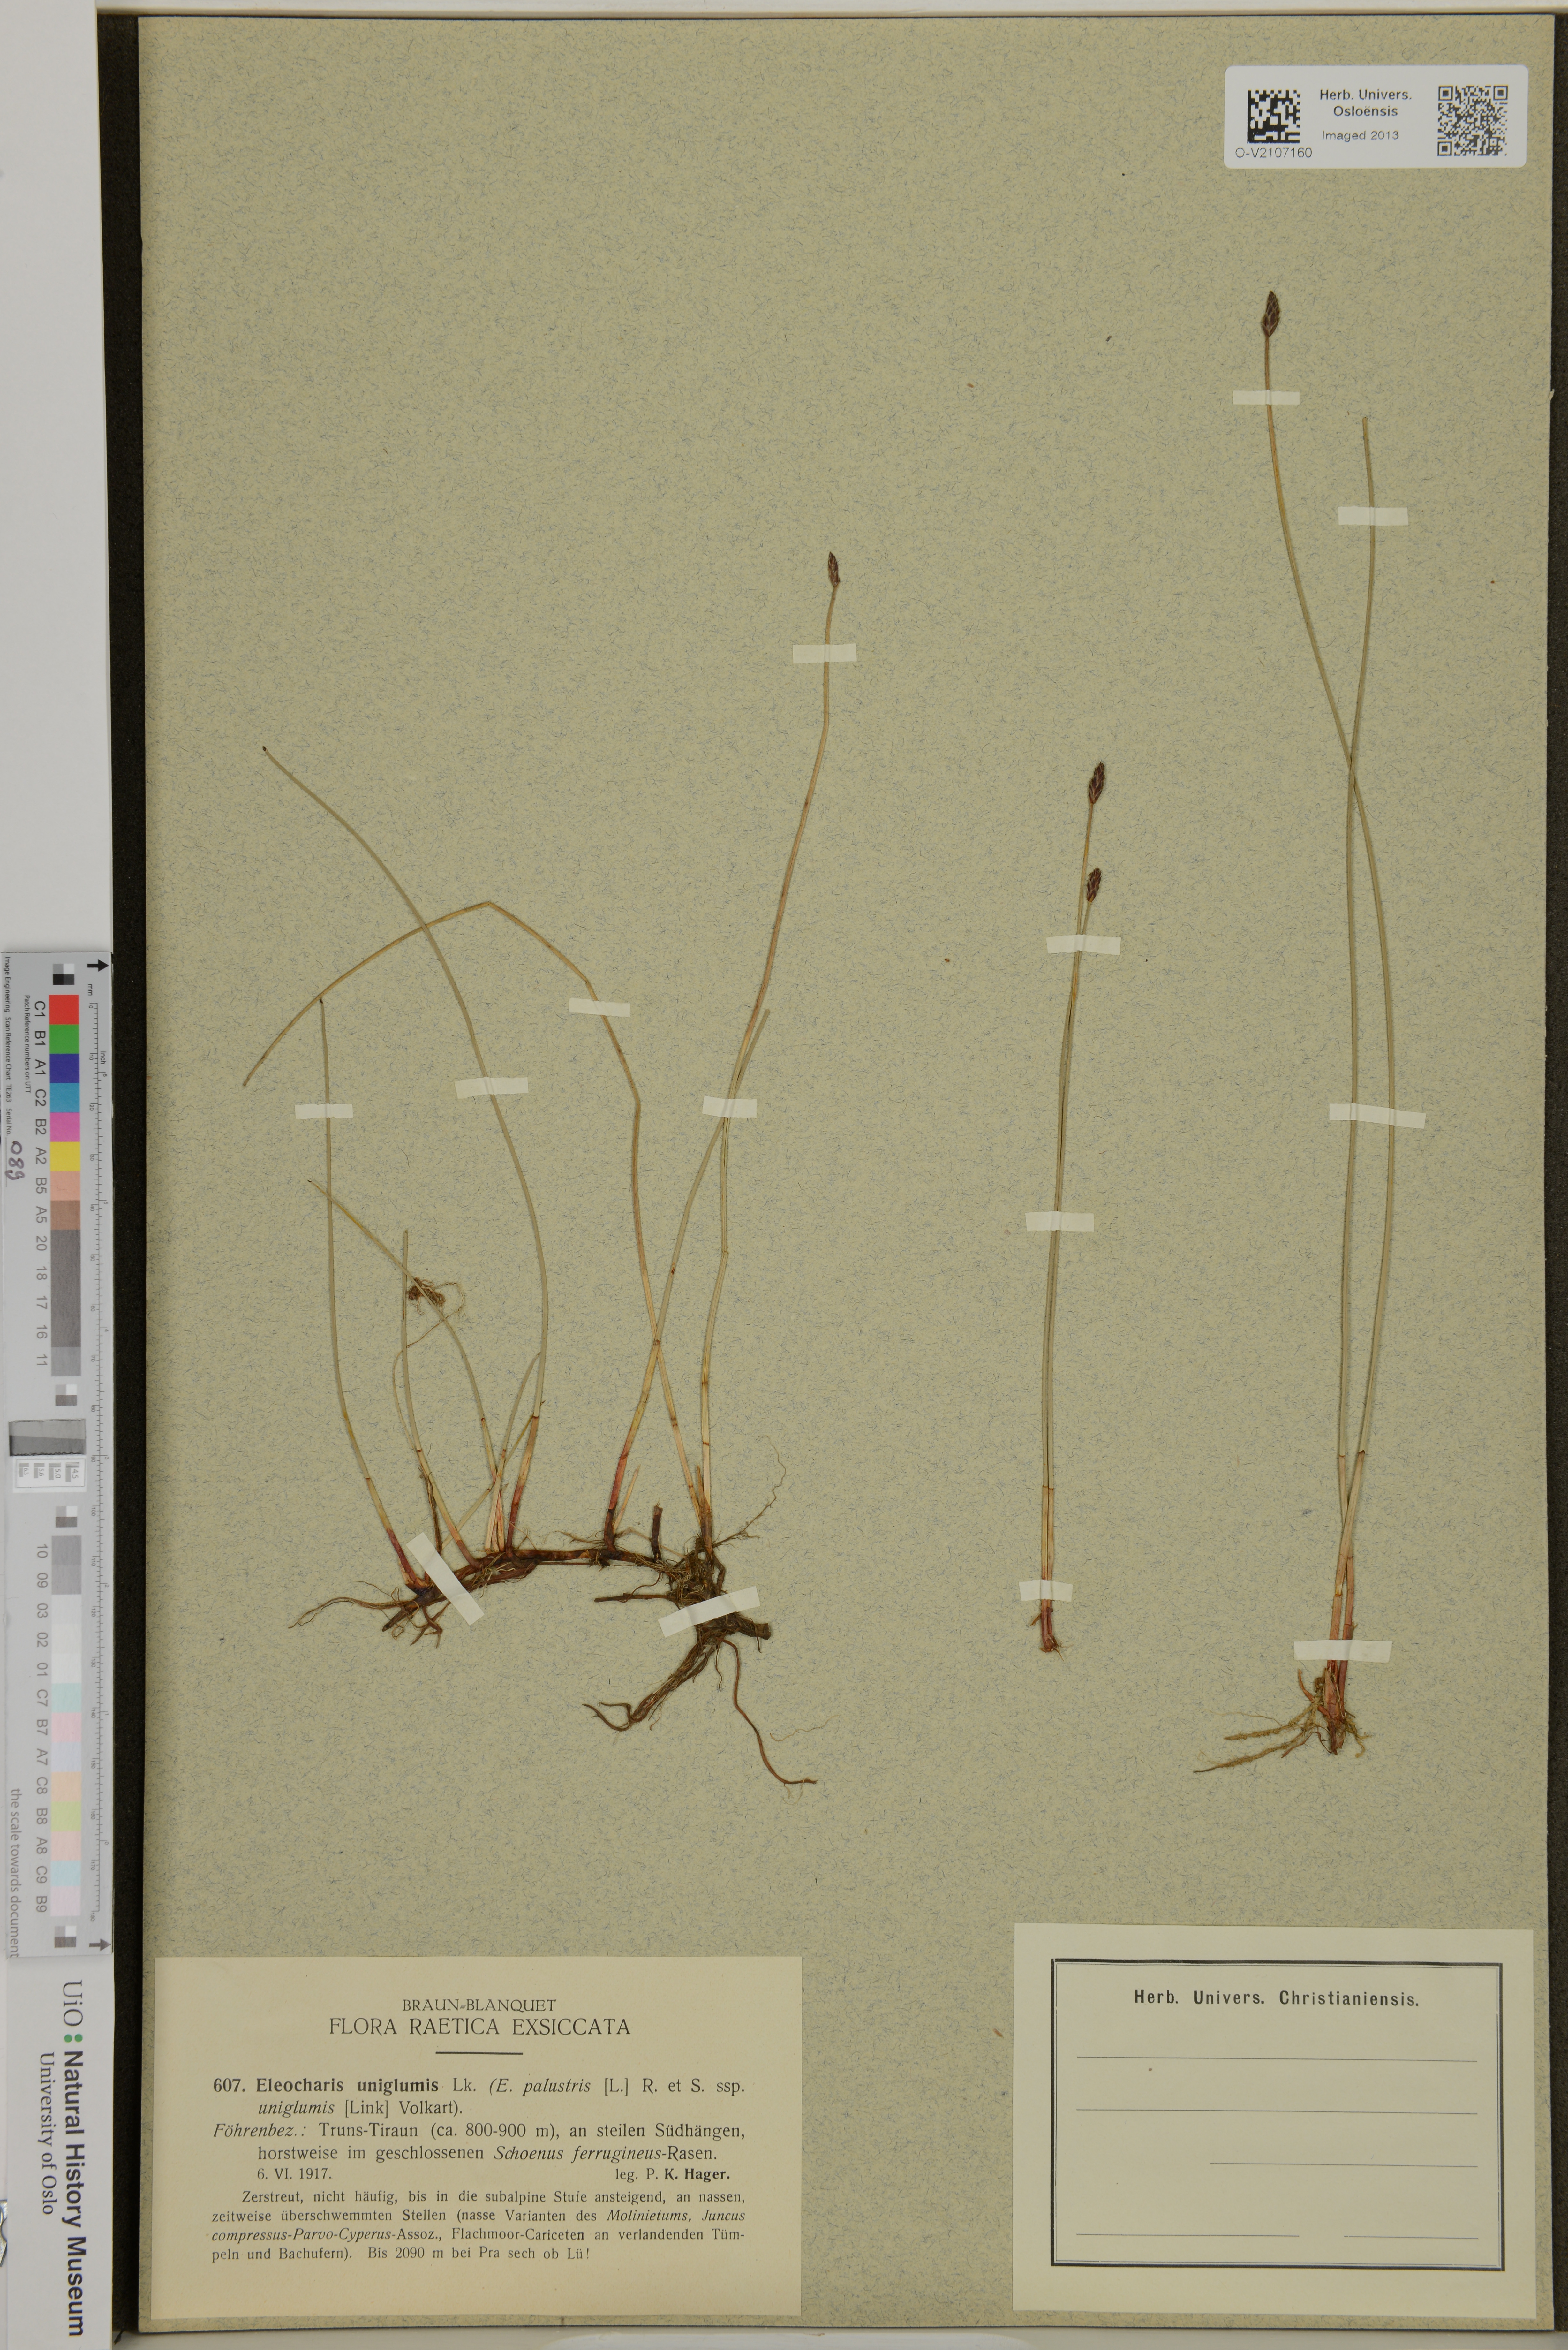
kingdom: Plantae
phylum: Tracheophyta
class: Liliopsida
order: Poales
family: Cyperaceae
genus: Eleocharis
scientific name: Eleocharis uniglumis
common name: Slender spike-rush
